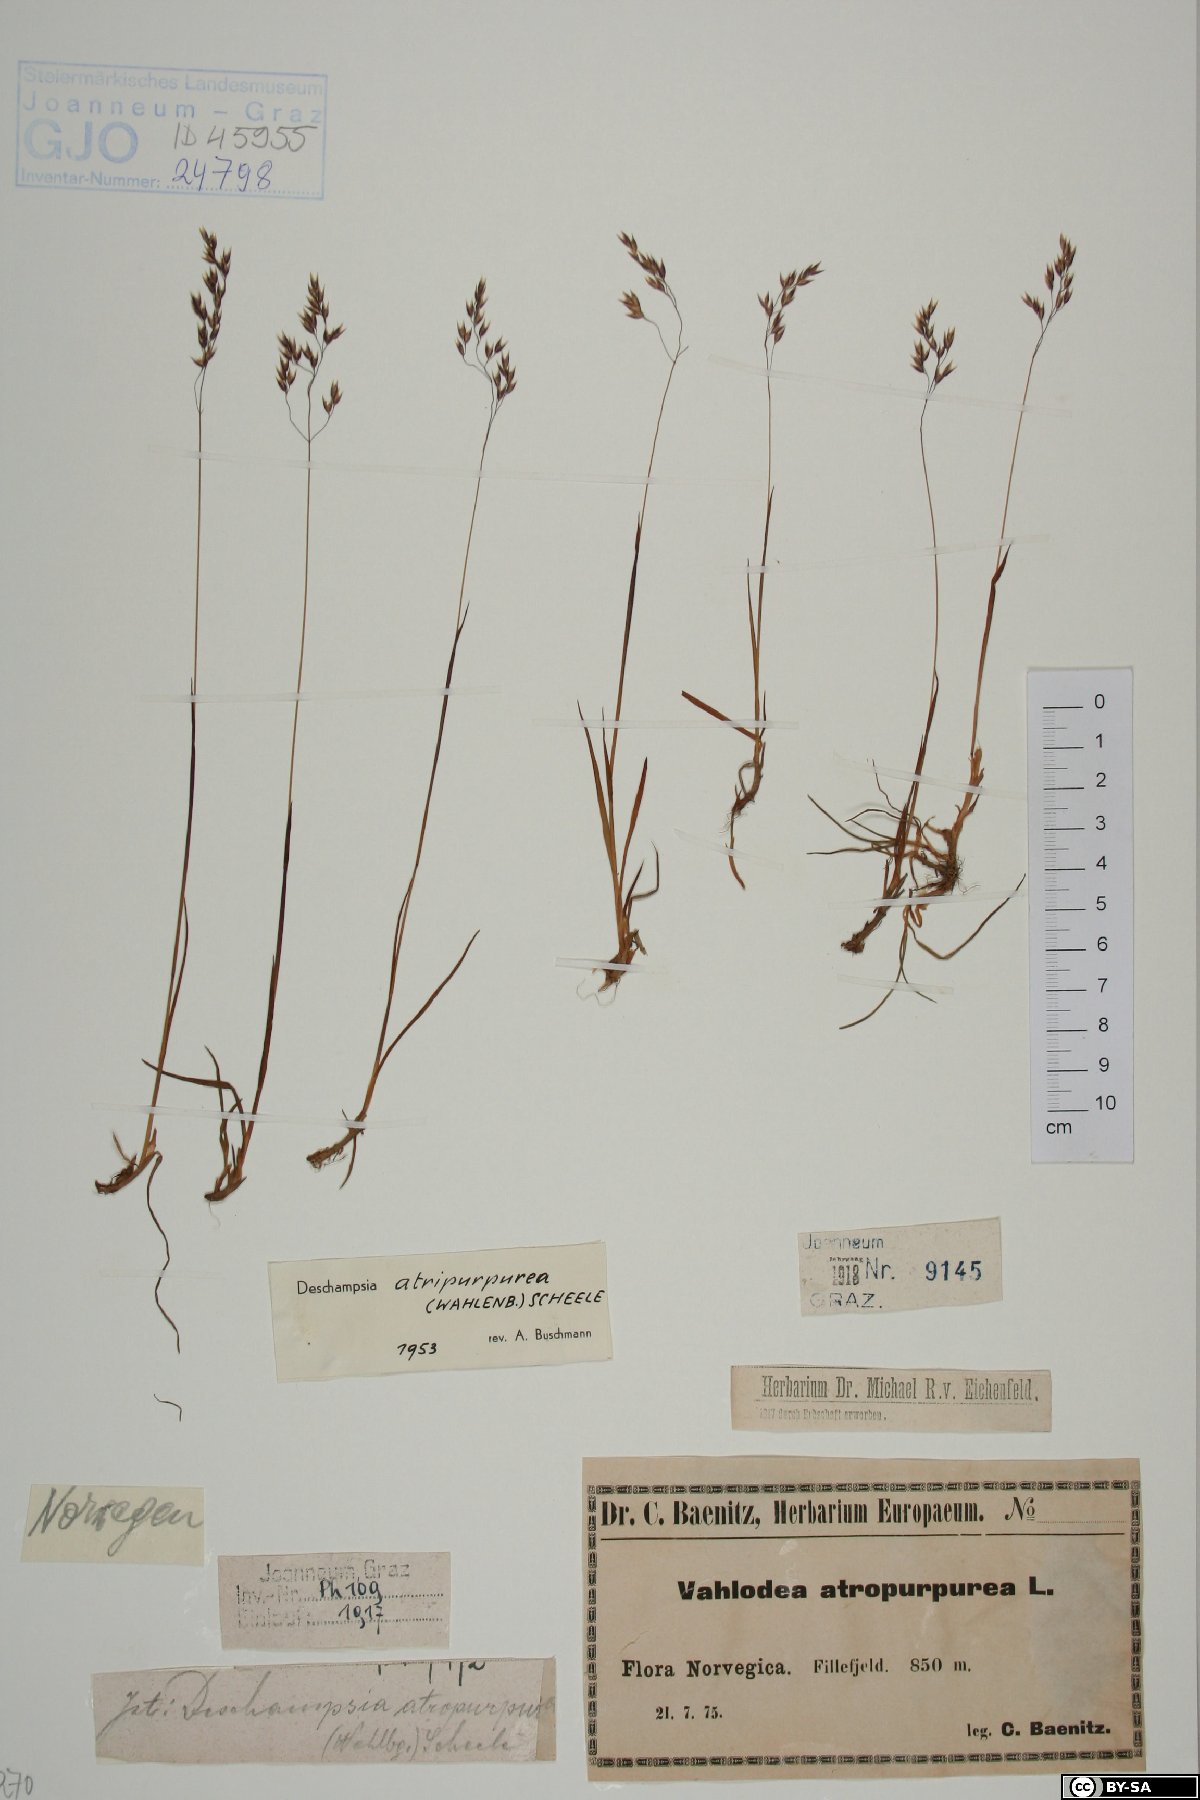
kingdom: Plantae
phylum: Tracheophyta
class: Liliopsida
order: Poales
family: Poaceae
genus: Vahlodea
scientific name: Vahlodea atropurpurea
